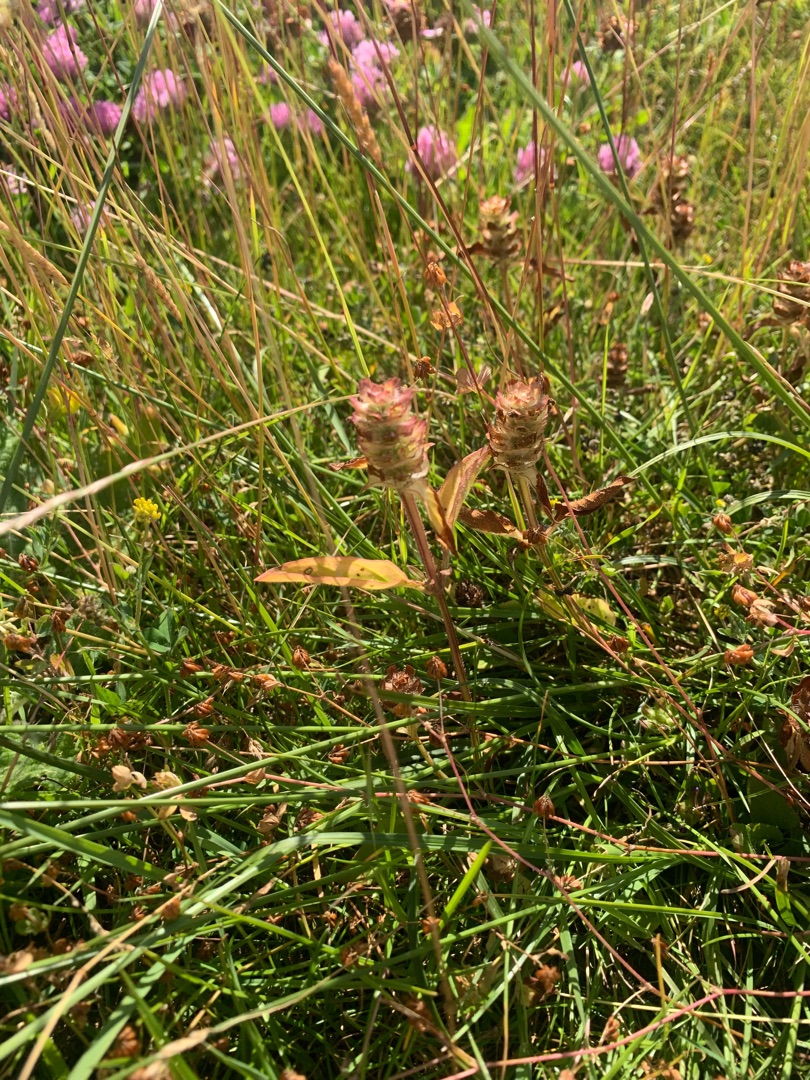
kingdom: Plantae
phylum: Tracheophyta
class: Magnoliopsida
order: Lamiales
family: Lamiaceae
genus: Prunella
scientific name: Prunella vulgaris
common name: Almindelig brunelle
